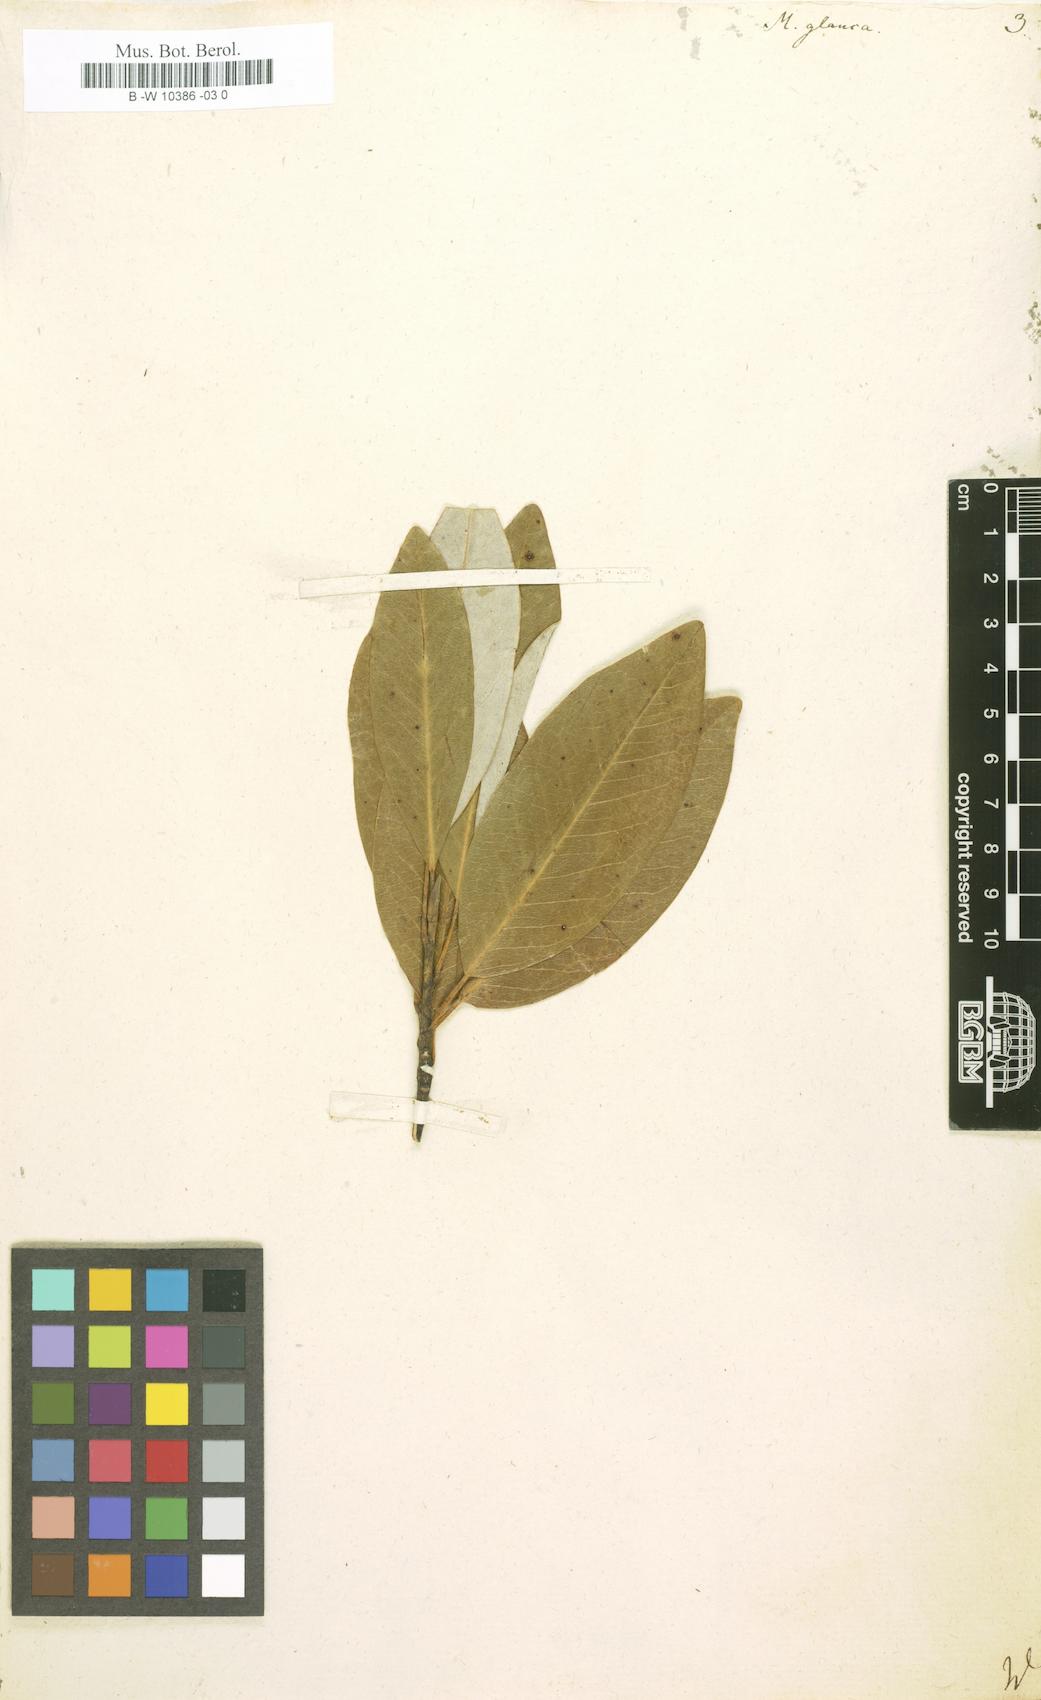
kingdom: Plantae
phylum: Tracheophyta
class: Magnoliopsida
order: Magnoliales
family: Magnoliaceae
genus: Magnolia
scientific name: Magnolia
